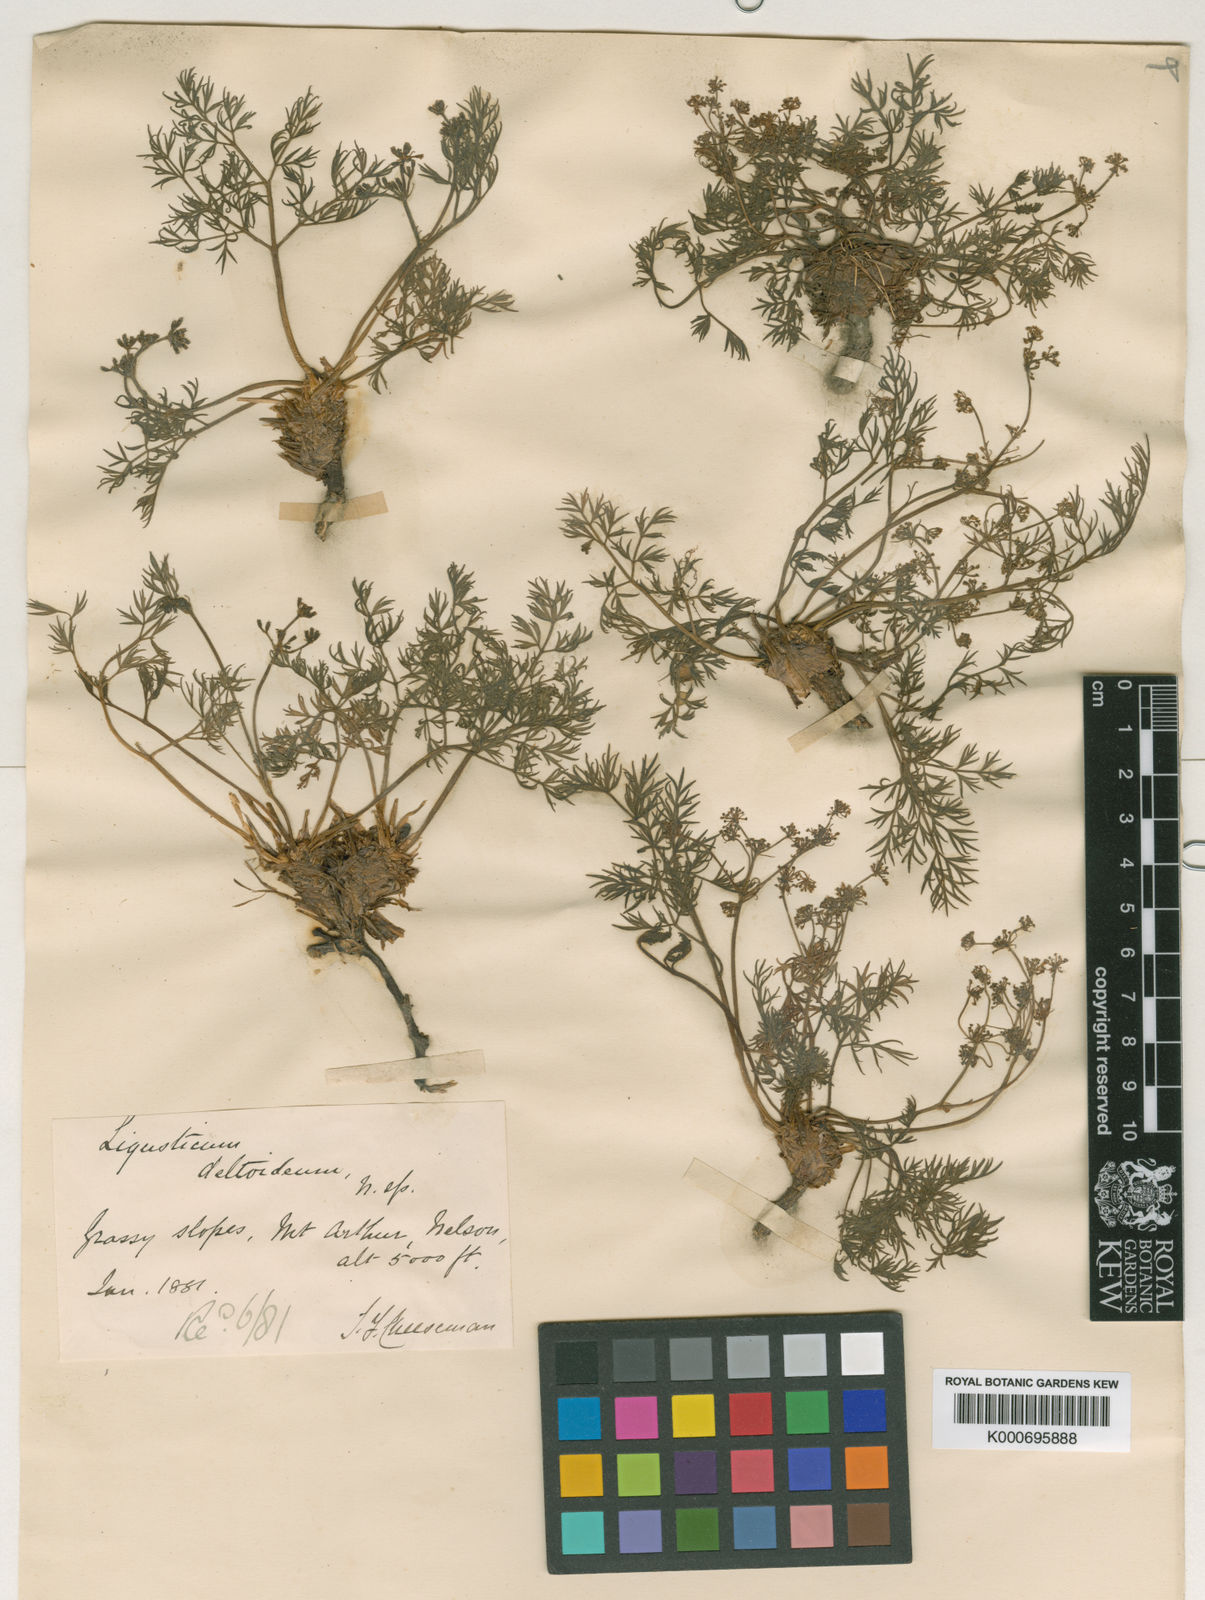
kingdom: Plantae
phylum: Tracheophyta
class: Magnoliopsida
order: Apiales
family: Apiaceae
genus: Anisotome
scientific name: Anisotome deltoidea
